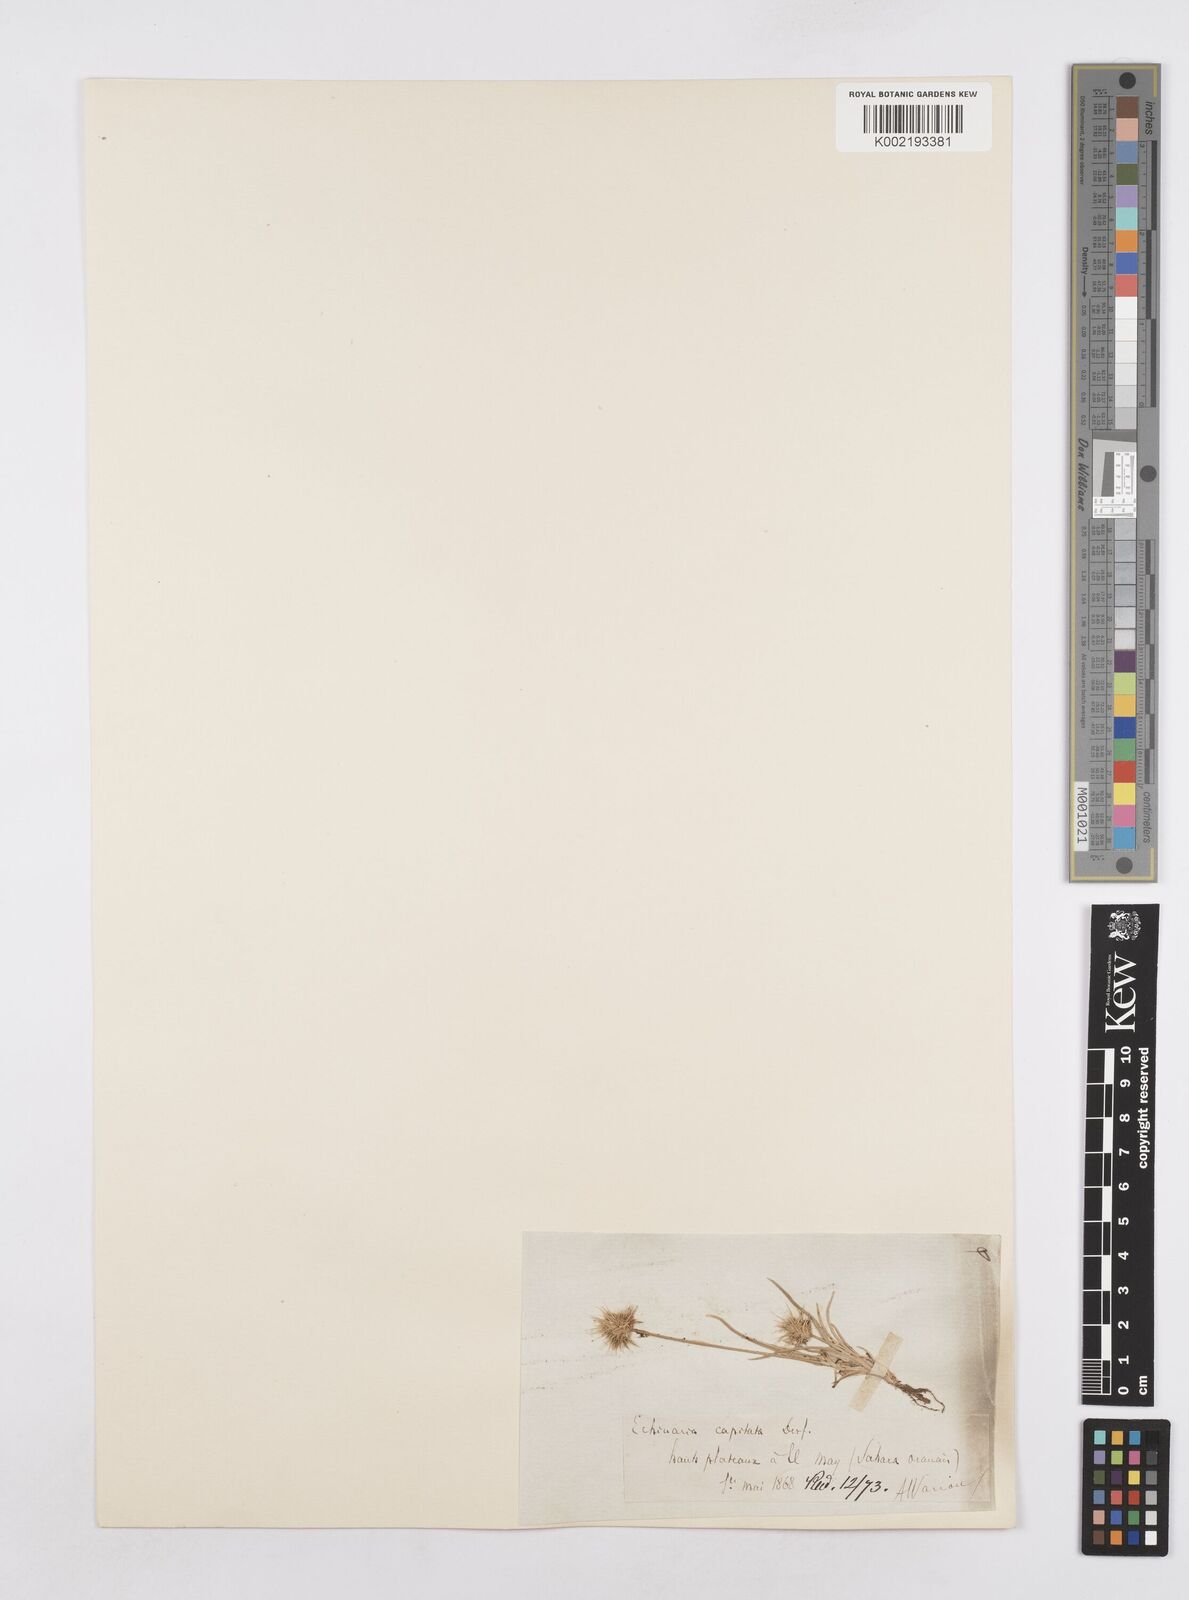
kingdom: Plantae
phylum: Tracheophyta
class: Liliopsida
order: Poales
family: Poaceae
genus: Echinaria
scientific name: Echinaria capitata
